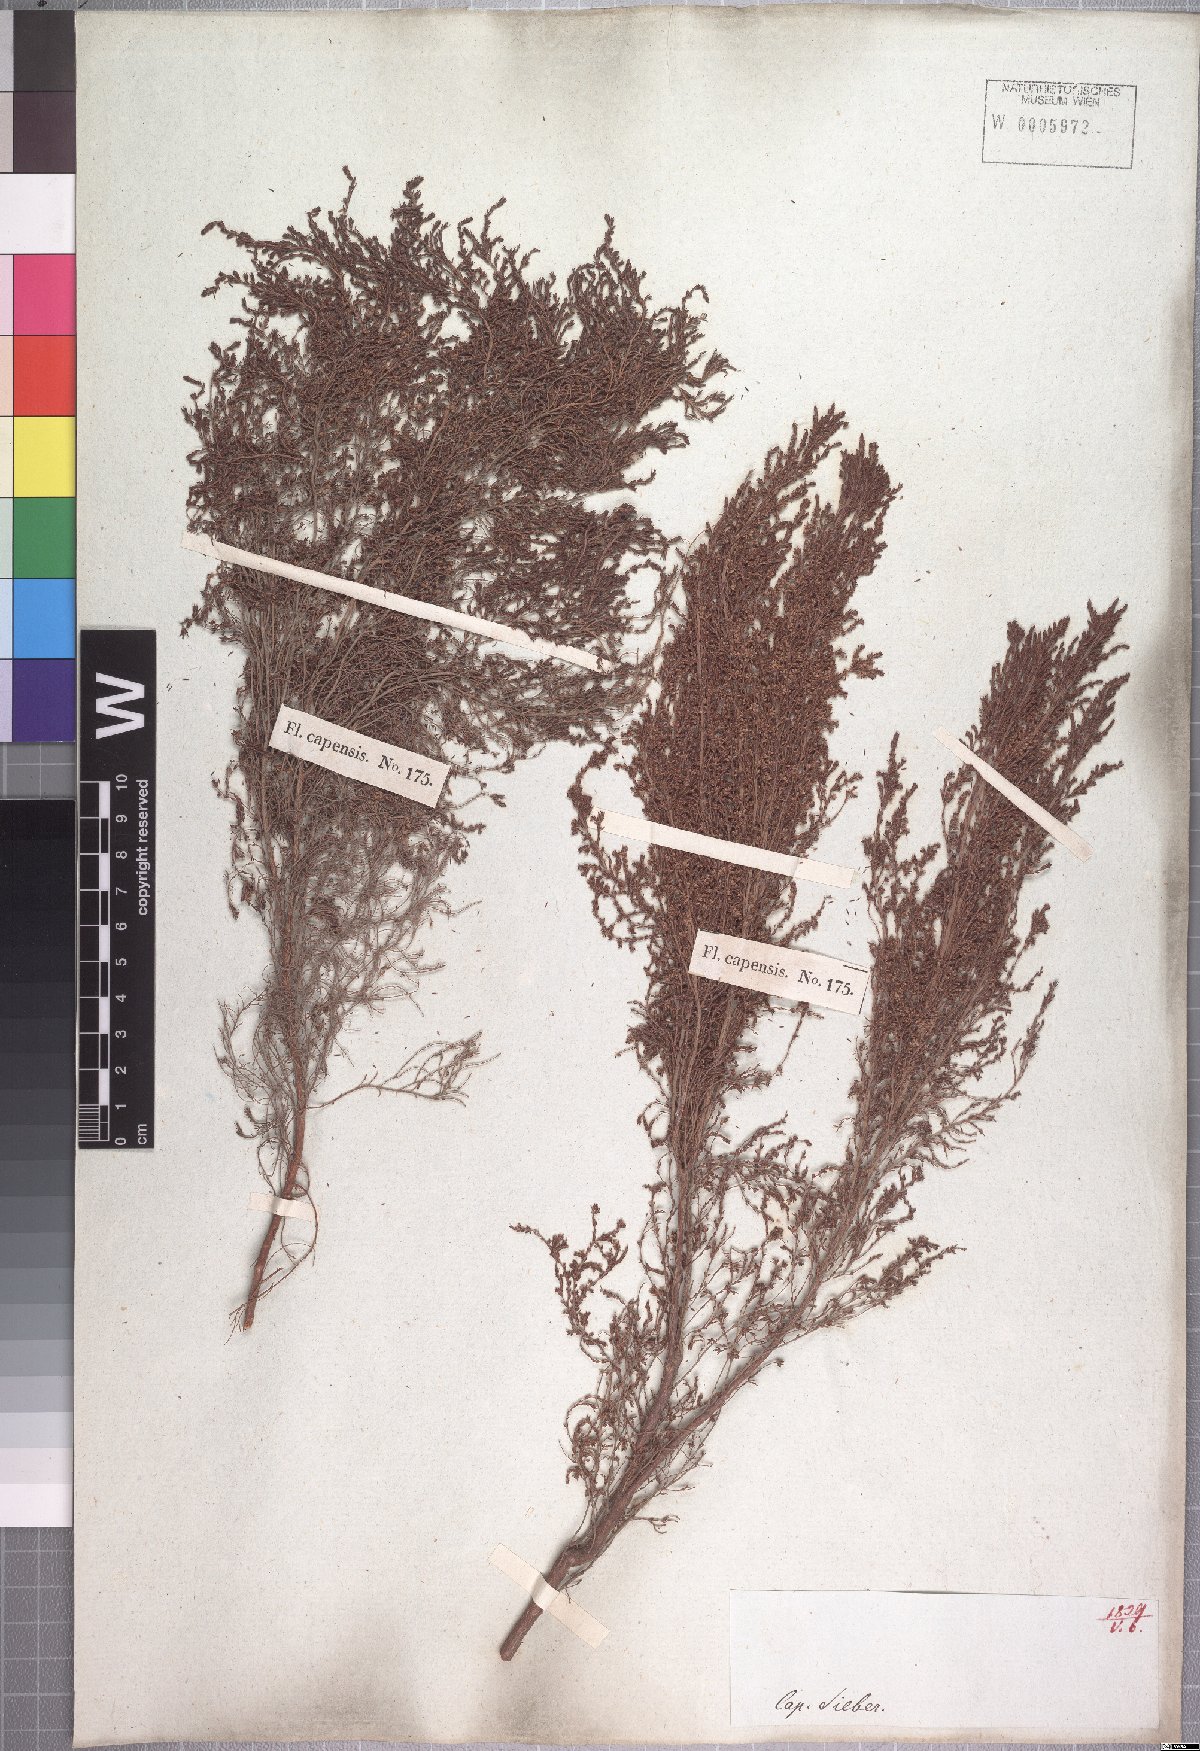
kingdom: Plantae
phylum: Tracheophyta
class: Magnoliopsida
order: Ericales
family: Ericaceae
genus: Erica
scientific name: Erica urceolata
